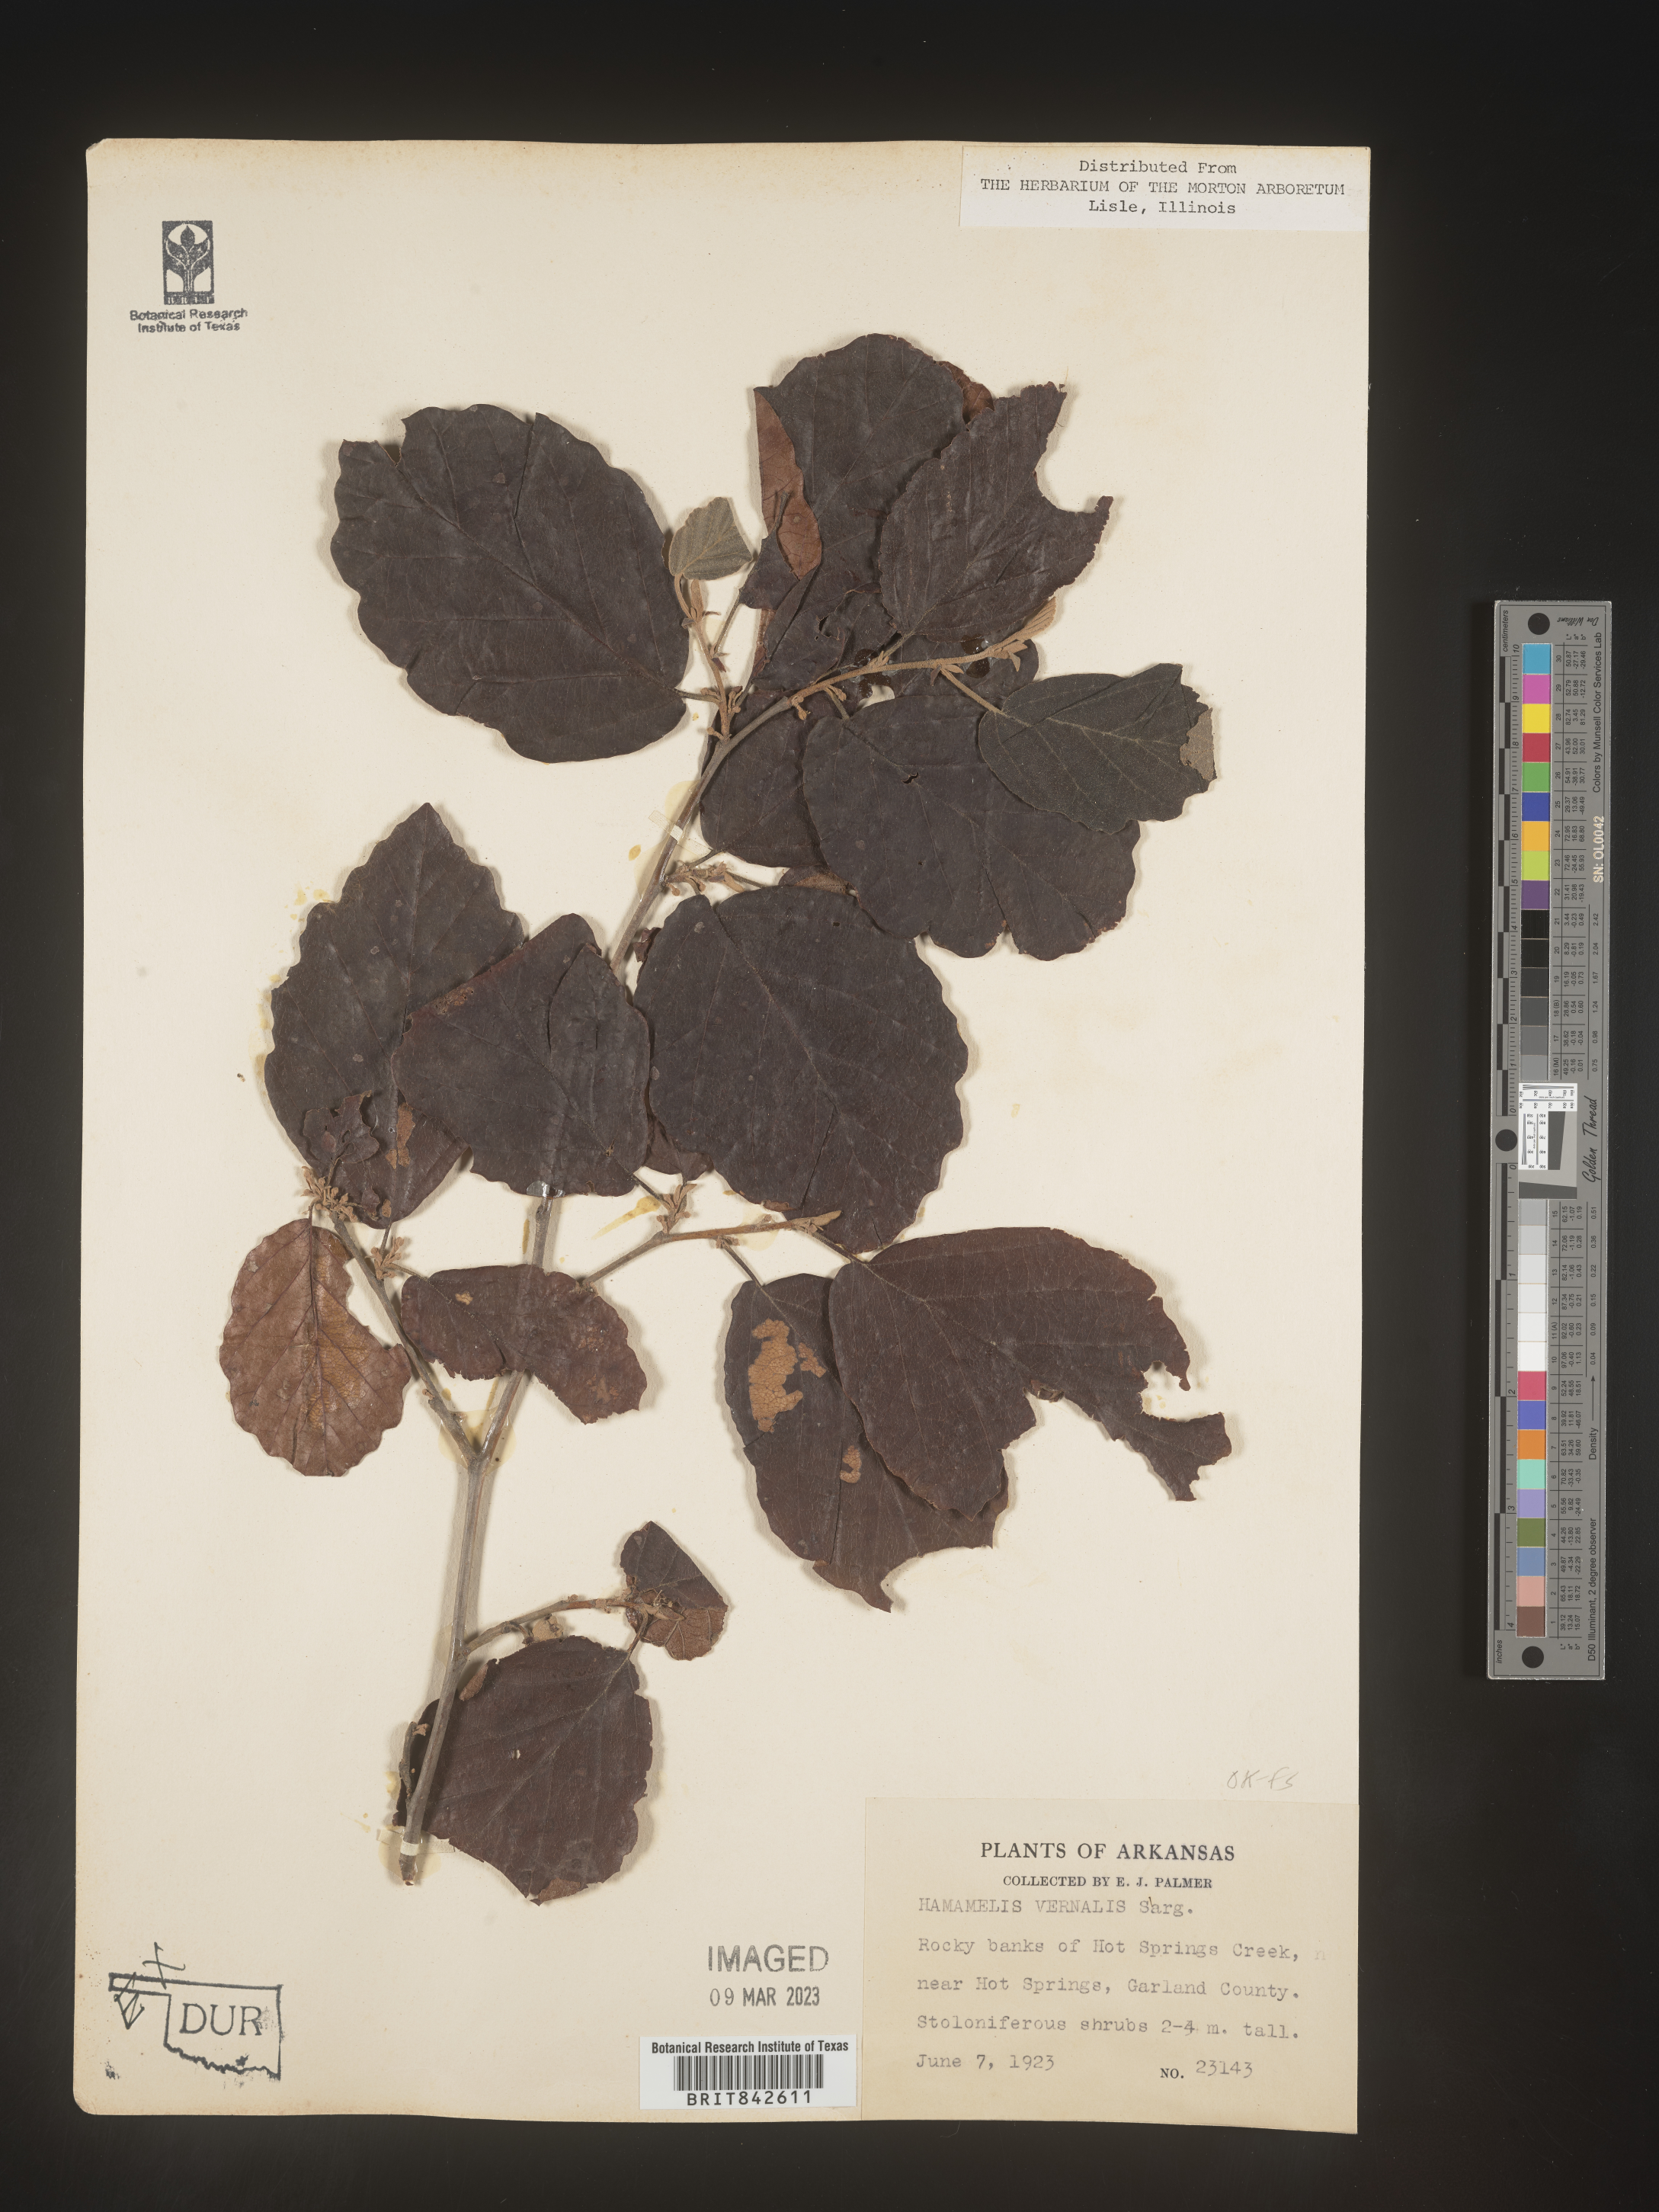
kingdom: Plantae
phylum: Tracheophyta
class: Magnoliopsida
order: Saxifragales
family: Hamamelidaceae
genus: Hamamelis
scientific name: Hamamelis vernalis
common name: Ozark witch-hazel
